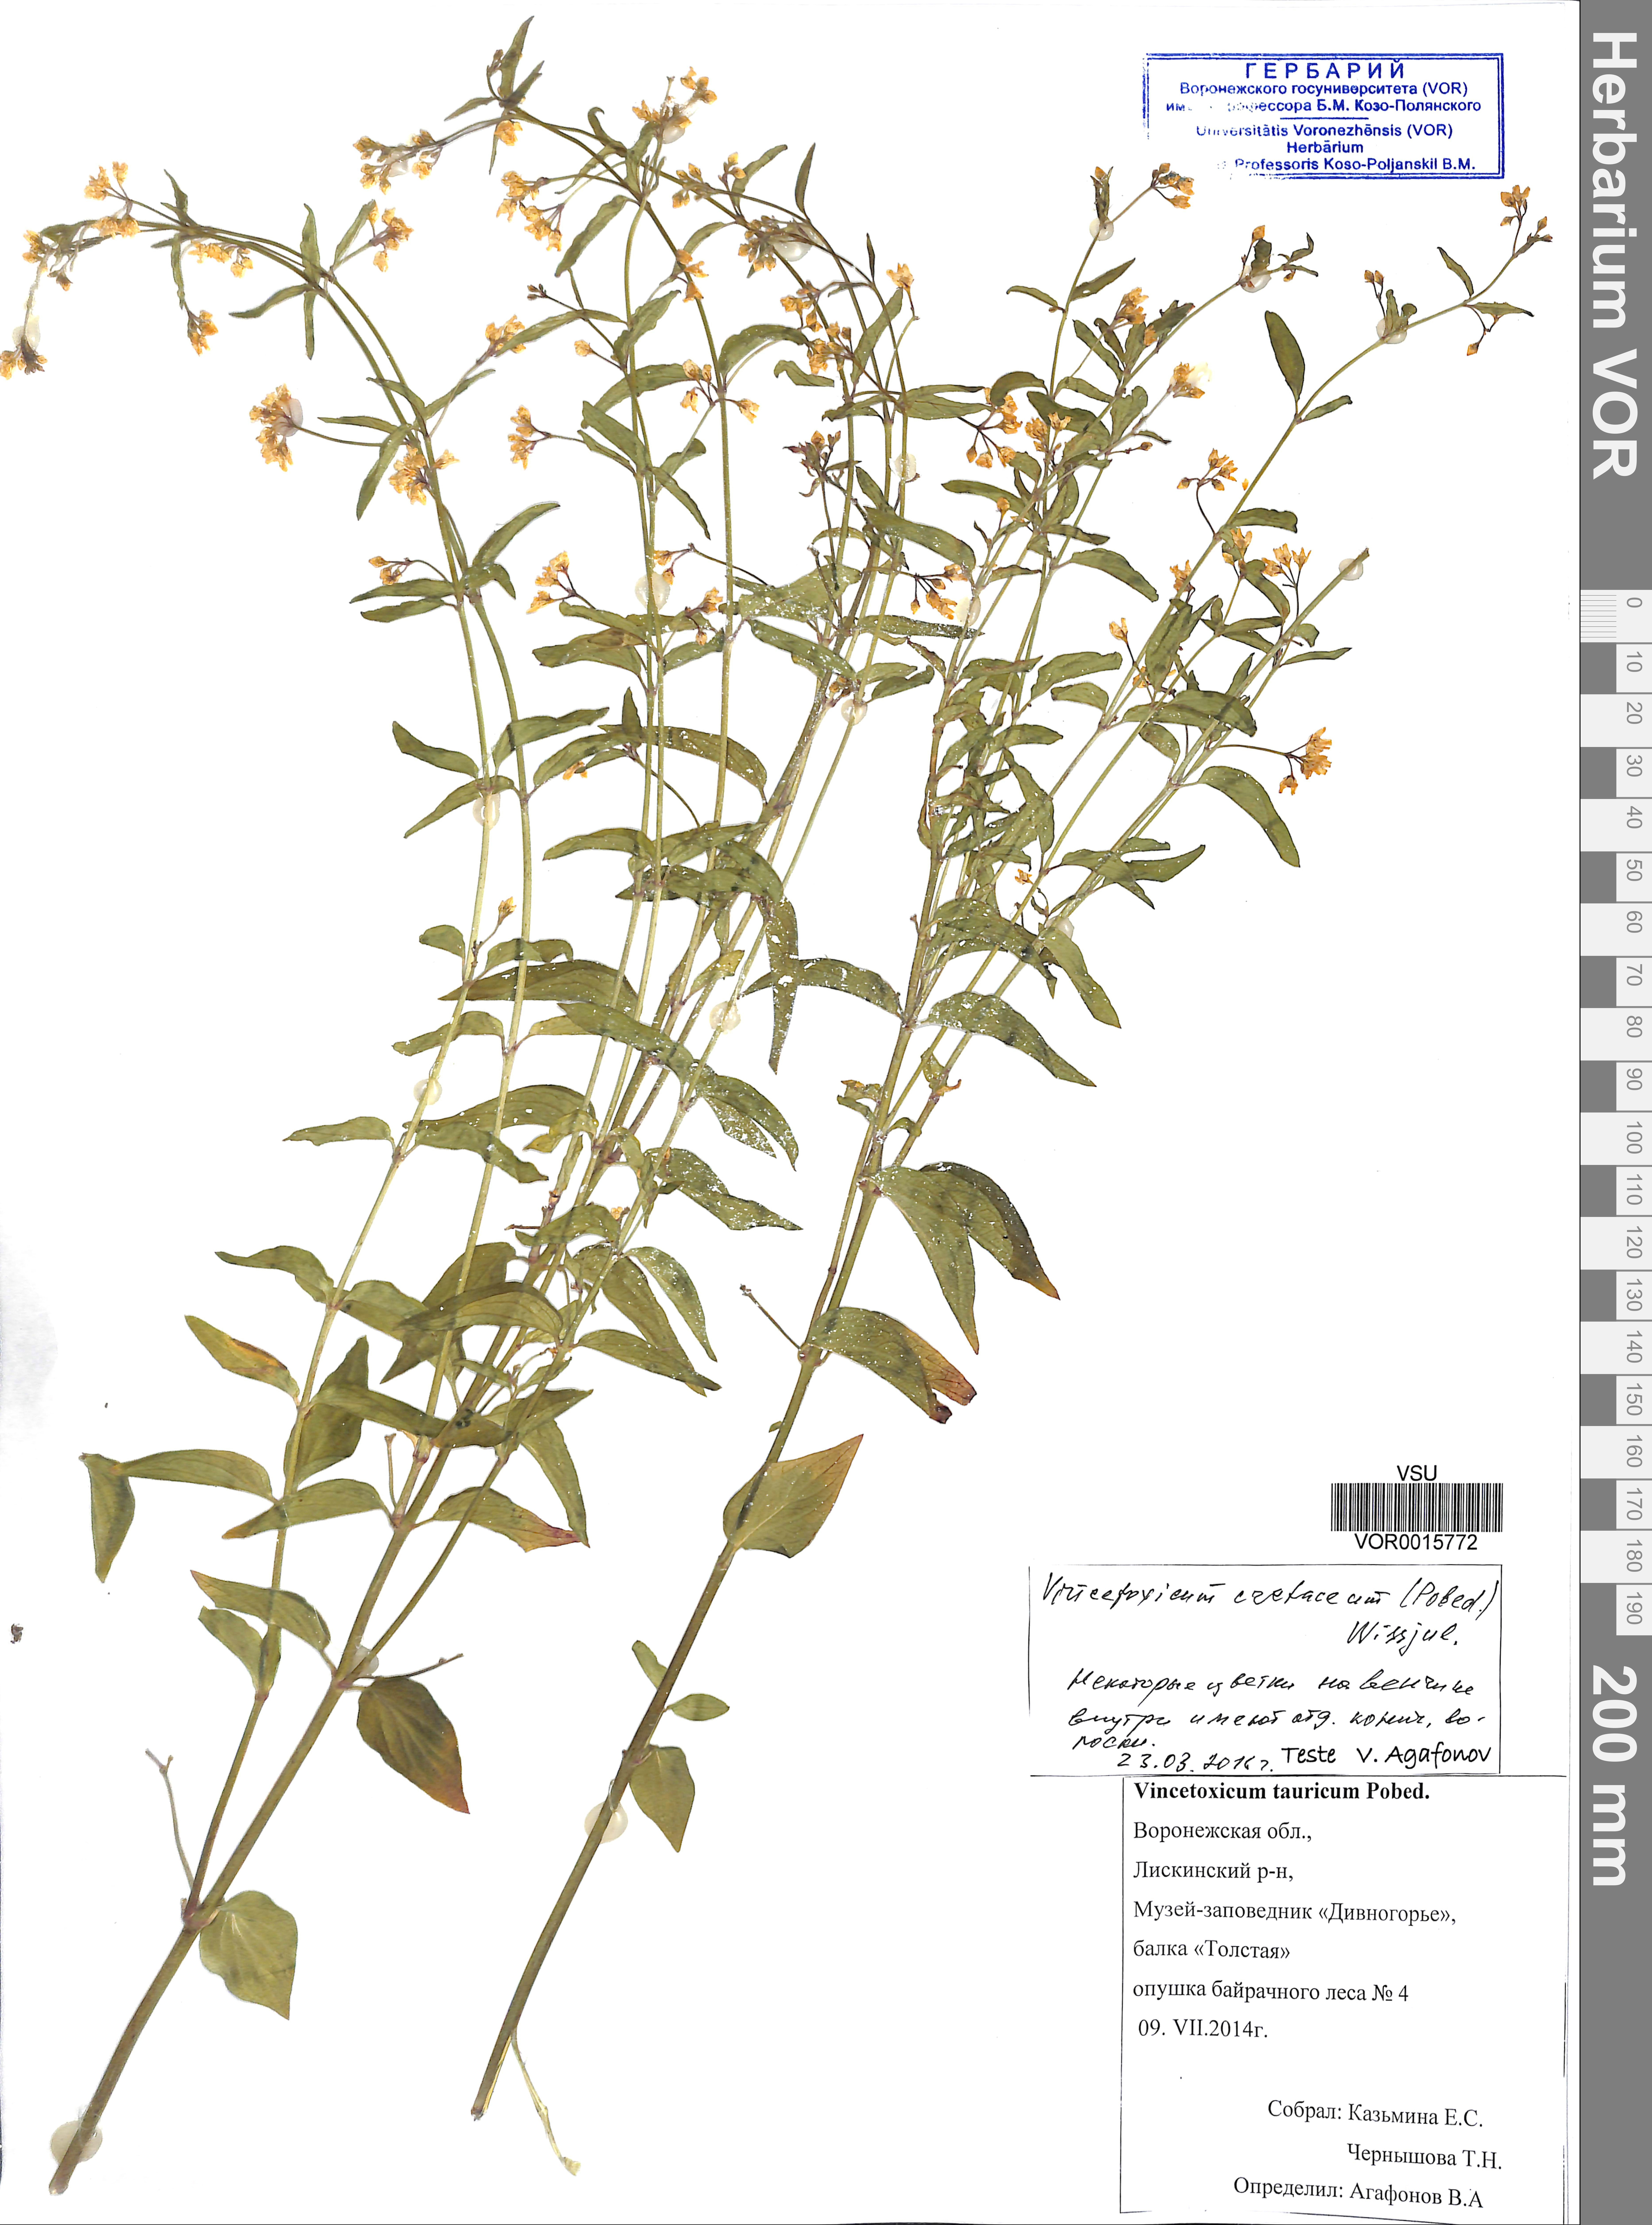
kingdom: Plantae
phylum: Tracheophyta
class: Magnoliopsida
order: Gentianales
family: Apocynaceae
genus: Vincetoxicum
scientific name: Vincetoxicum hirundinaria
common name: White swallowwort
